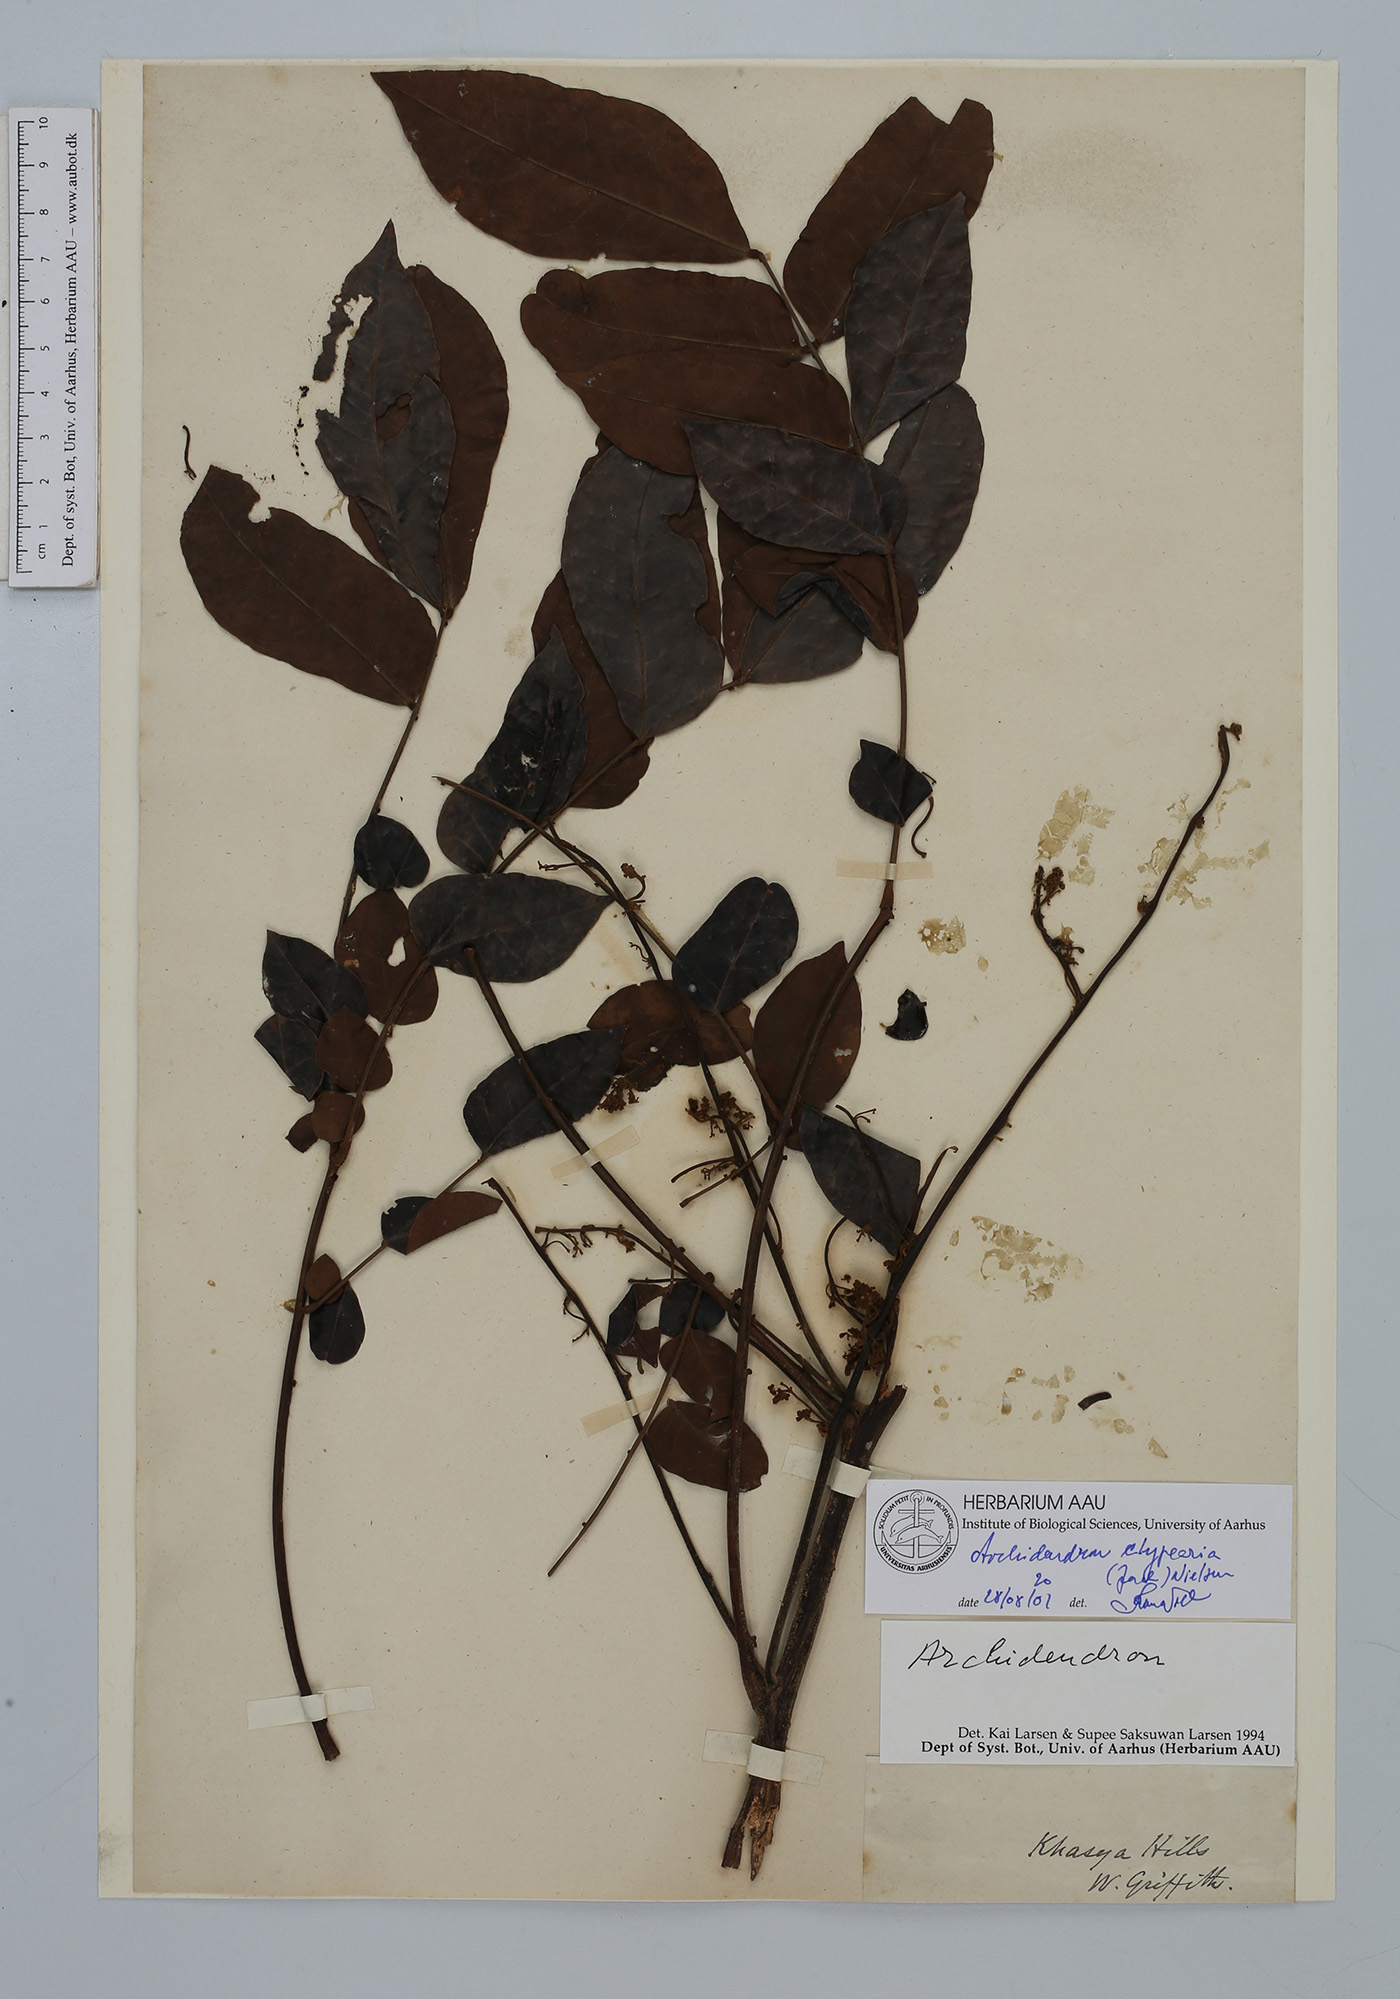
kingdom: Plantae
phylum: Tracheophyta
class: Magnoliopsida
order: Fabales
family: Fabaceae
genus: Archidendron
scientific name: Archidendron clypearia
